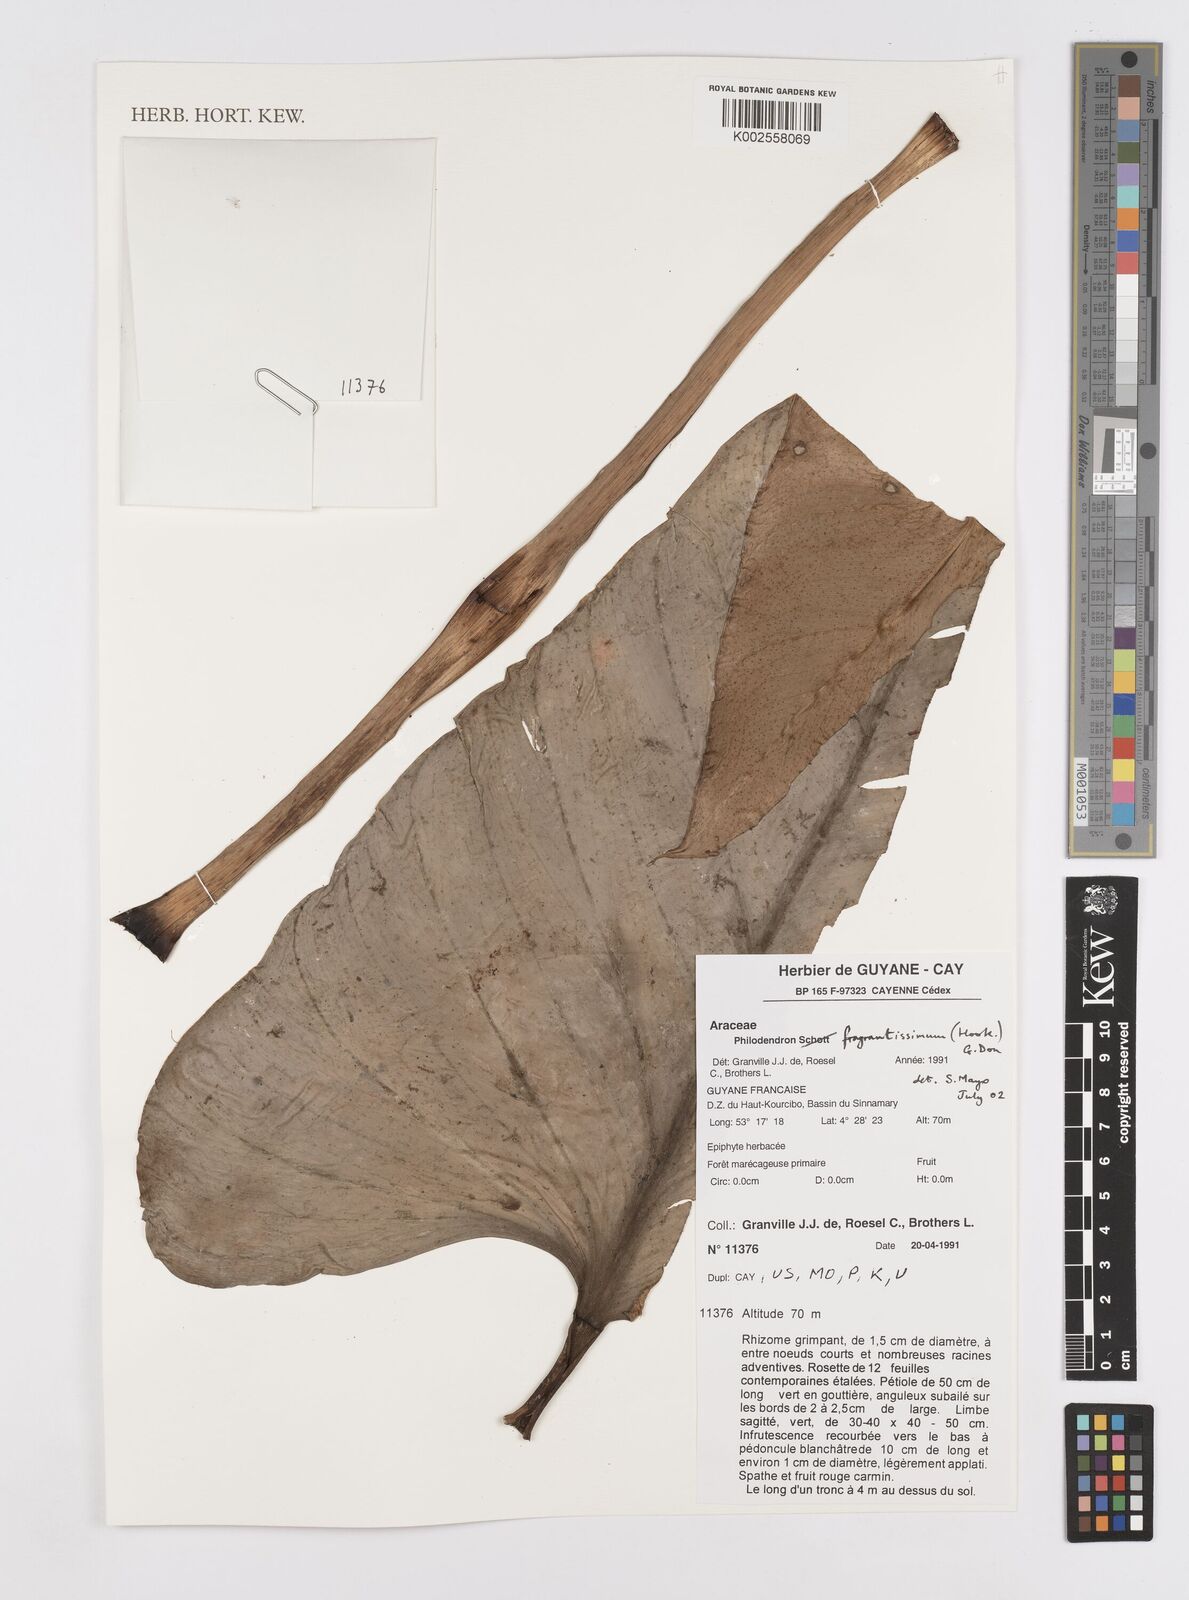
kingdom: Plantae
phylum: Tracheophyta
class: Liliopsida
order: Alismatales
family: Araceae
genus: Philodendron
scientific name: Philodendron fragrantissimum
